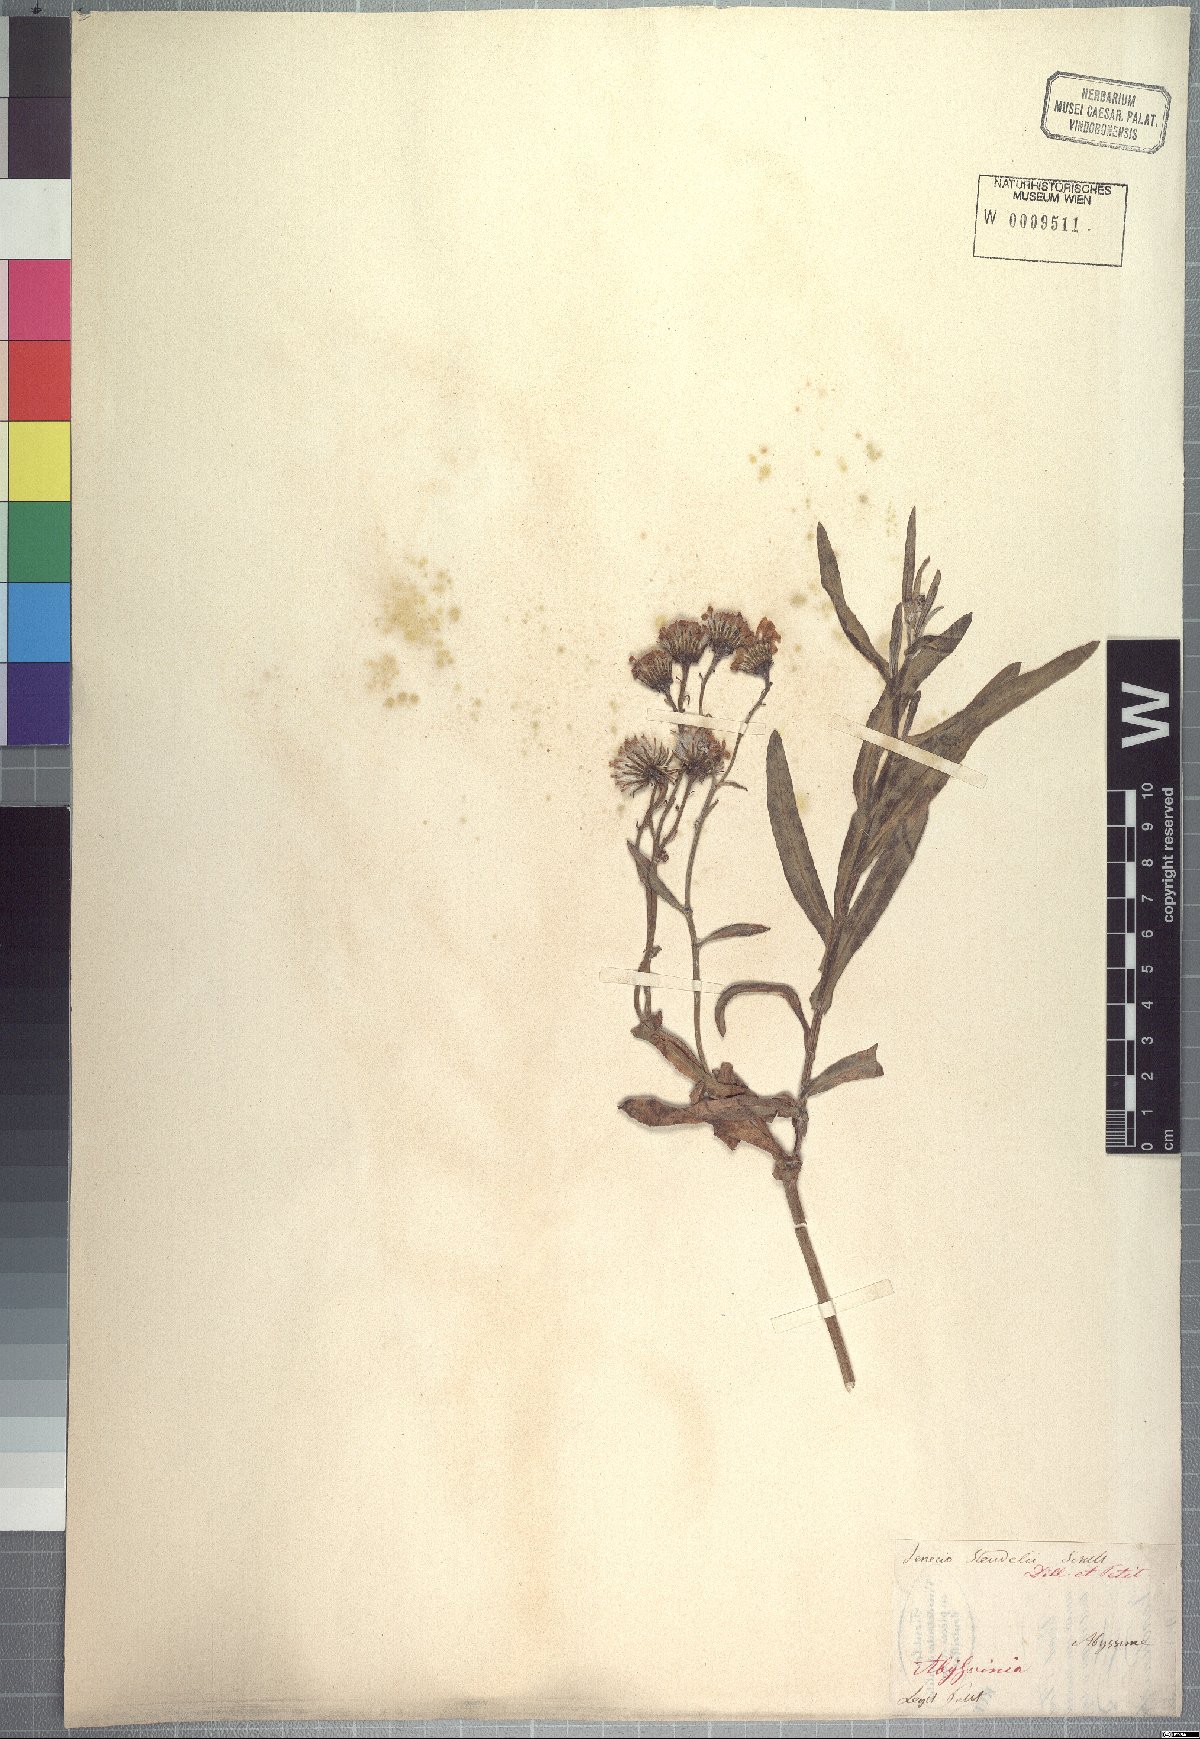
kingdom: Plantae
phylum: Tracheophyta
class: Magnoliopsida
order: Asterales
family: Asteraceae
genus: Senecio
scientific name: Senecio steudelii
